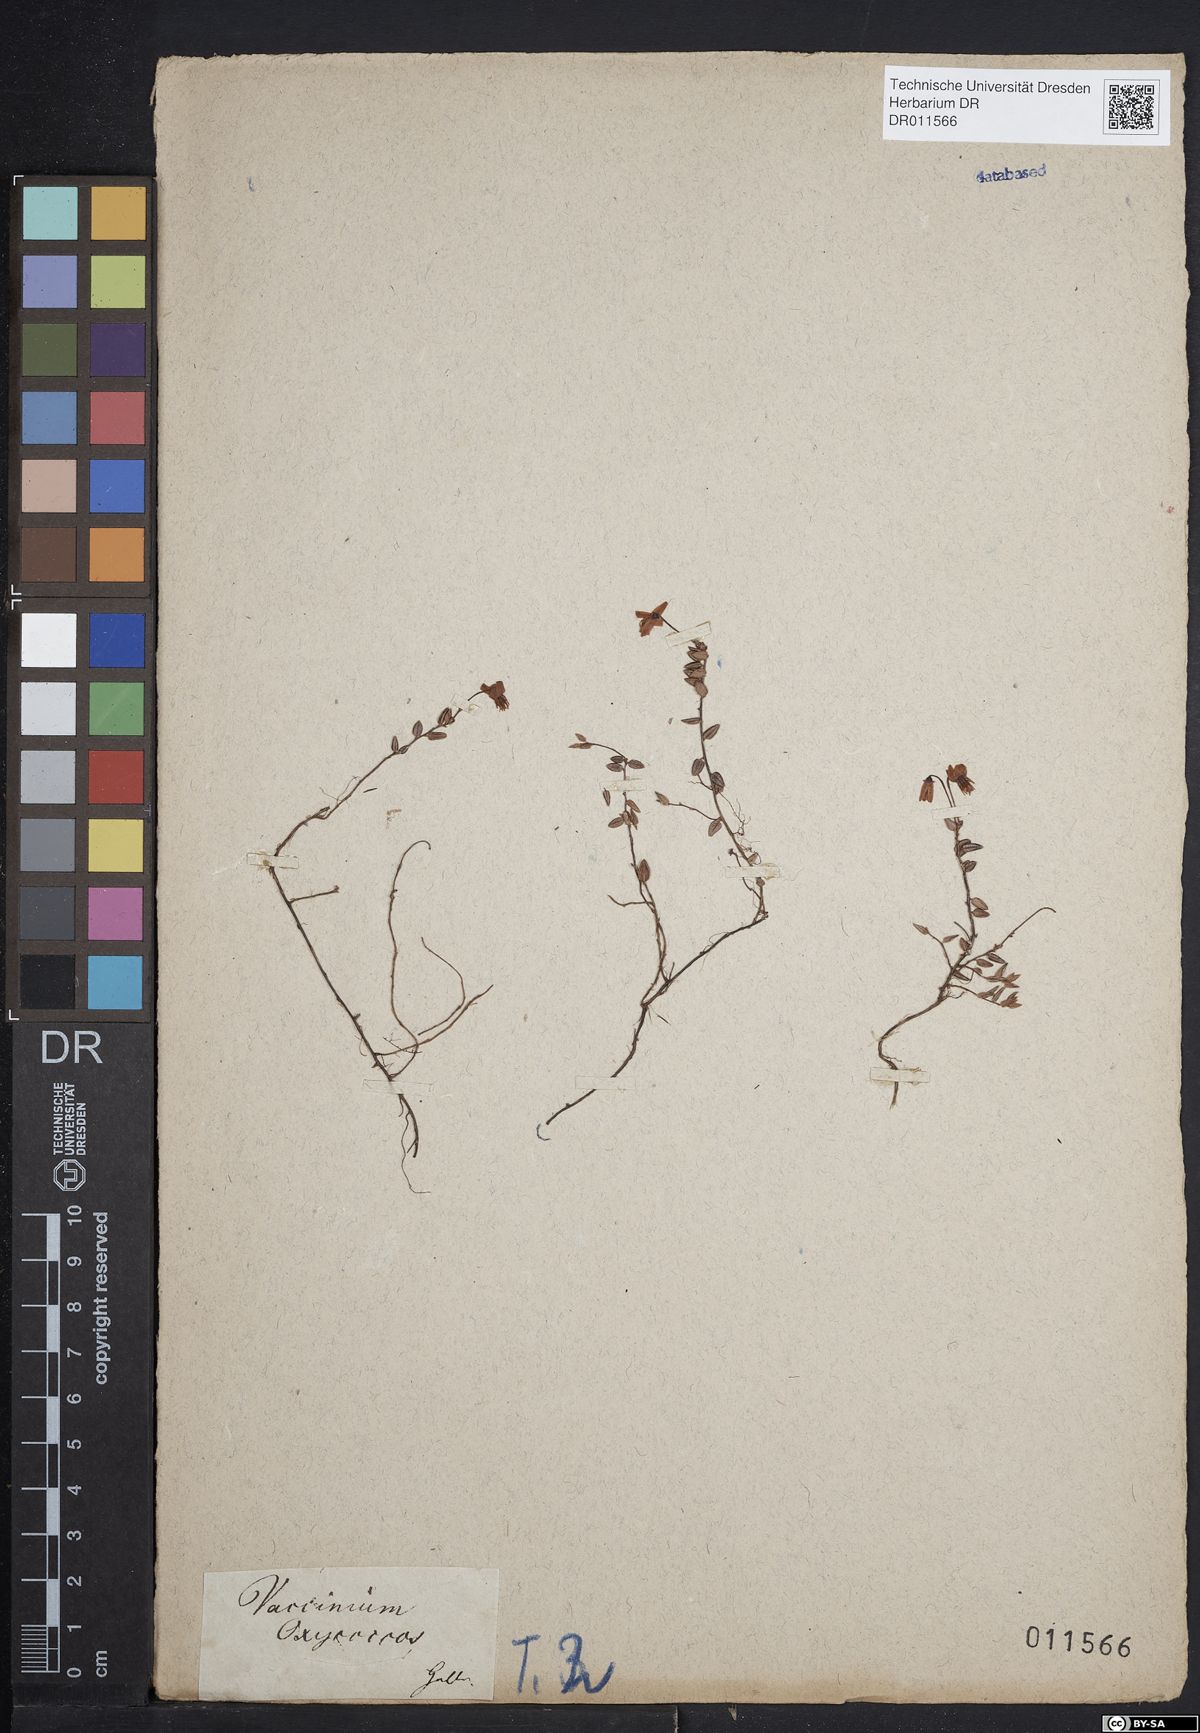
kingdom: Plantae
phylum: Tracheophyta
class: Magnoliopsida
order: Ericales
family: Ericaceae
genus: Vaccinium
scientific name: Vaccinium oxycoccos
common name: Cranberry
